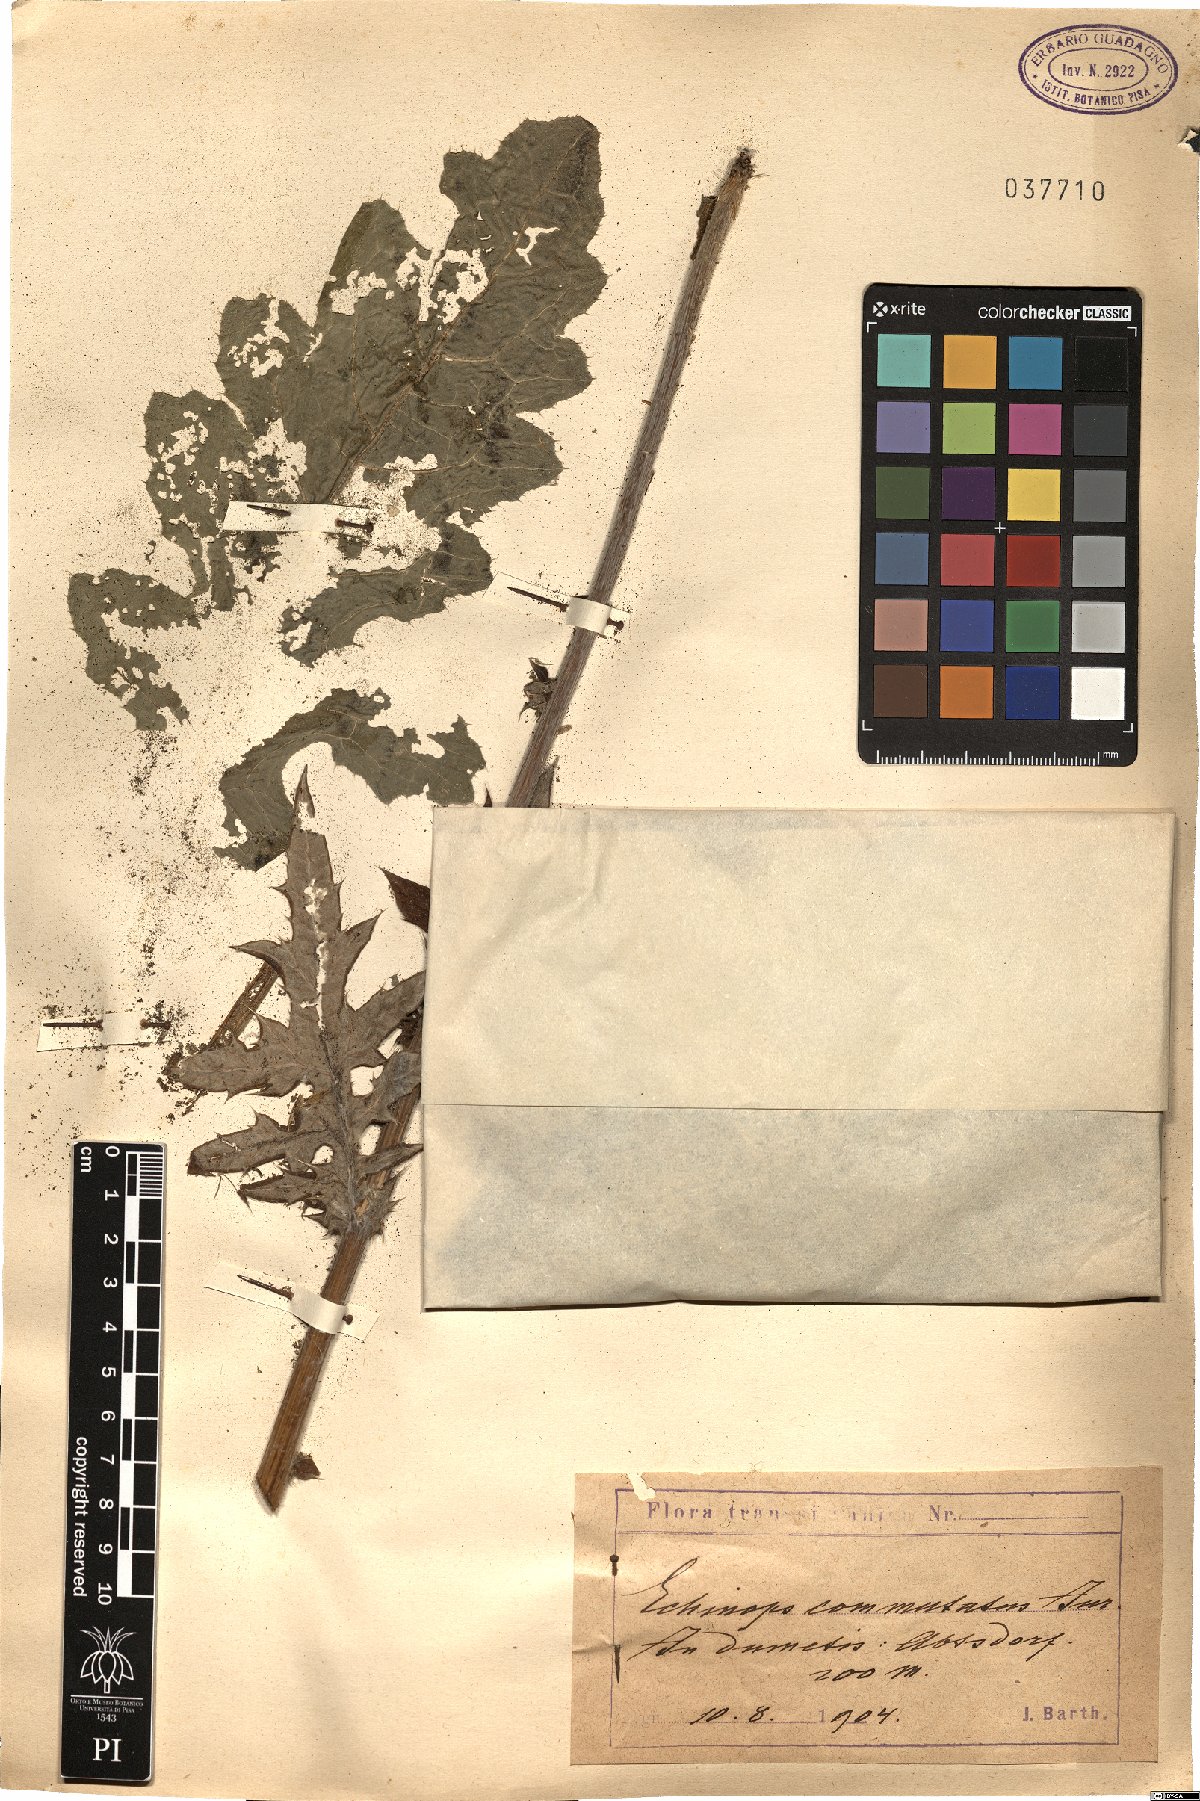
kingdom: Plantae
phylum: Tracheophyta
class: Magnoliopsida
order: Asterales
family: Asteraceae
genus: Echinops
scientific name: Echinops exaltatus
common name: Globe-thistle
